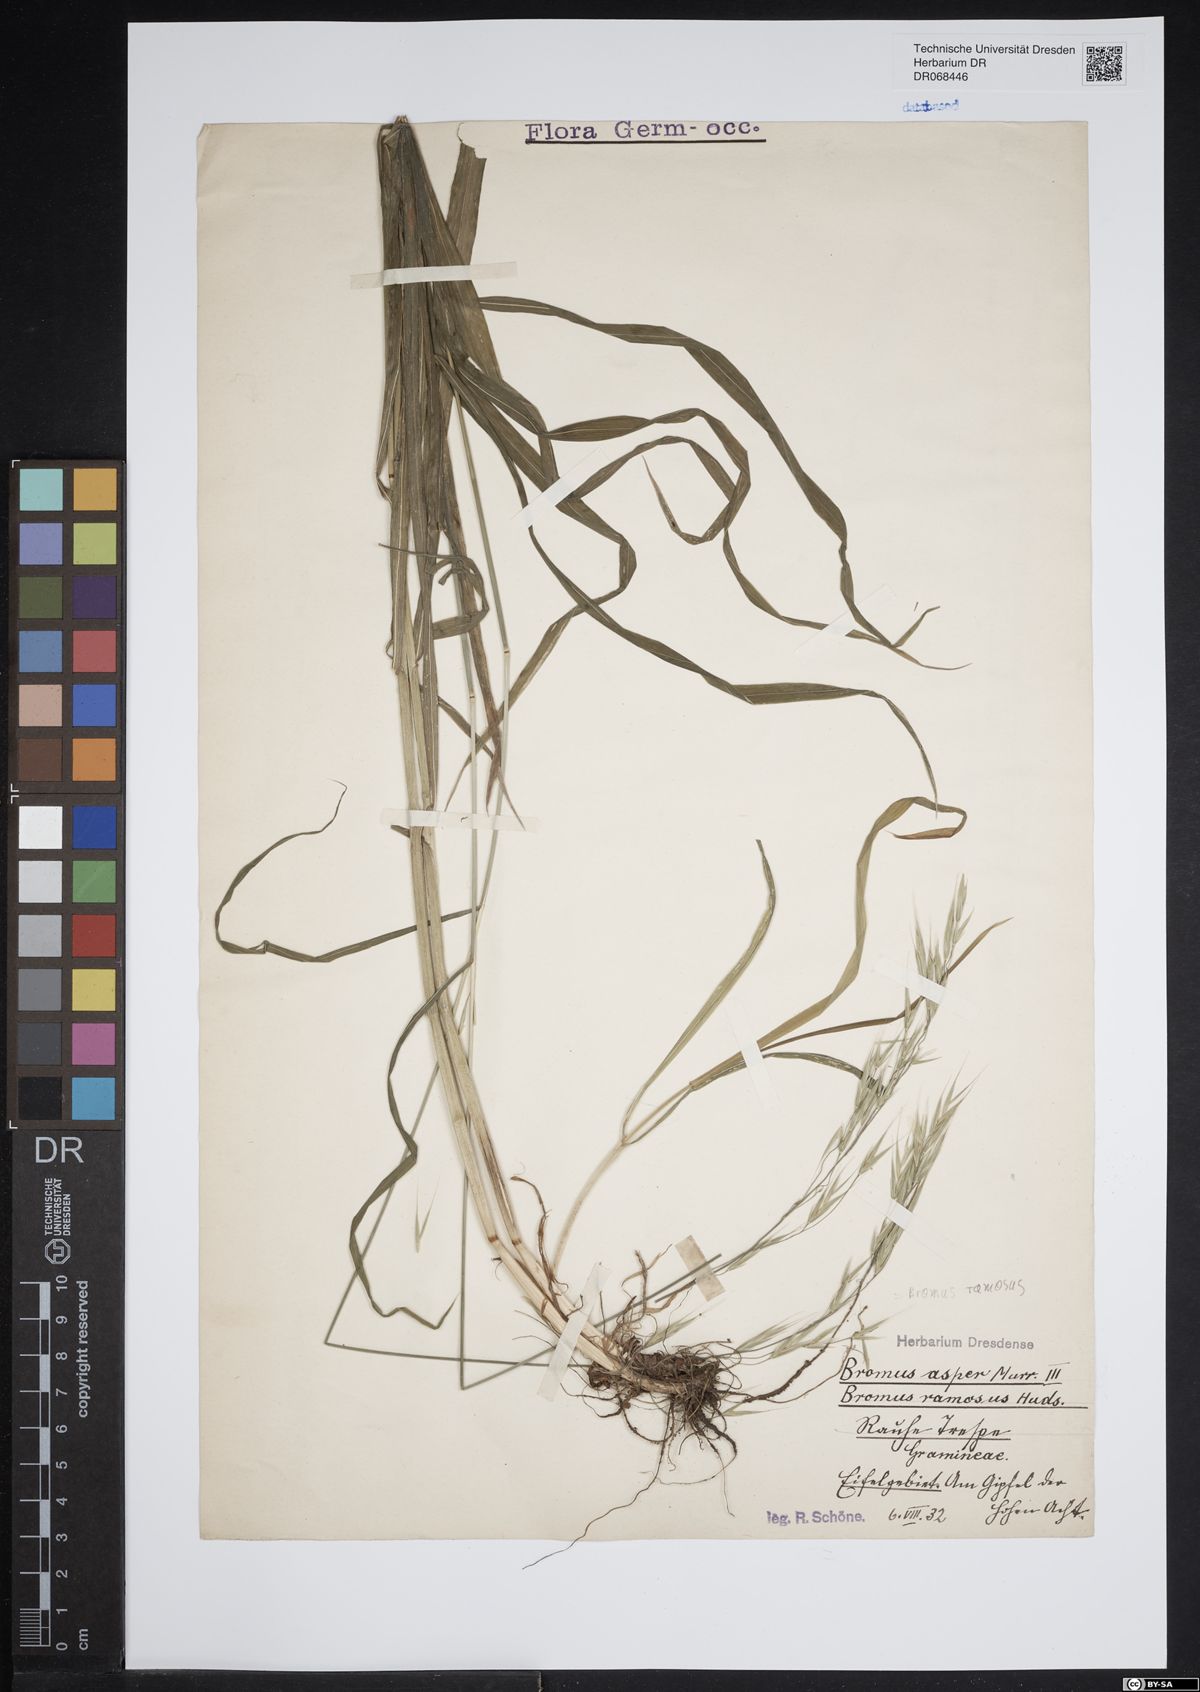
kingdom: Plantae
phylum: Tracheophyta
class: Liliopsida
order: Poales
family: Poaceae
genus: Bromus
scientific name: Bromus ramosus
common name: Hairy brome
